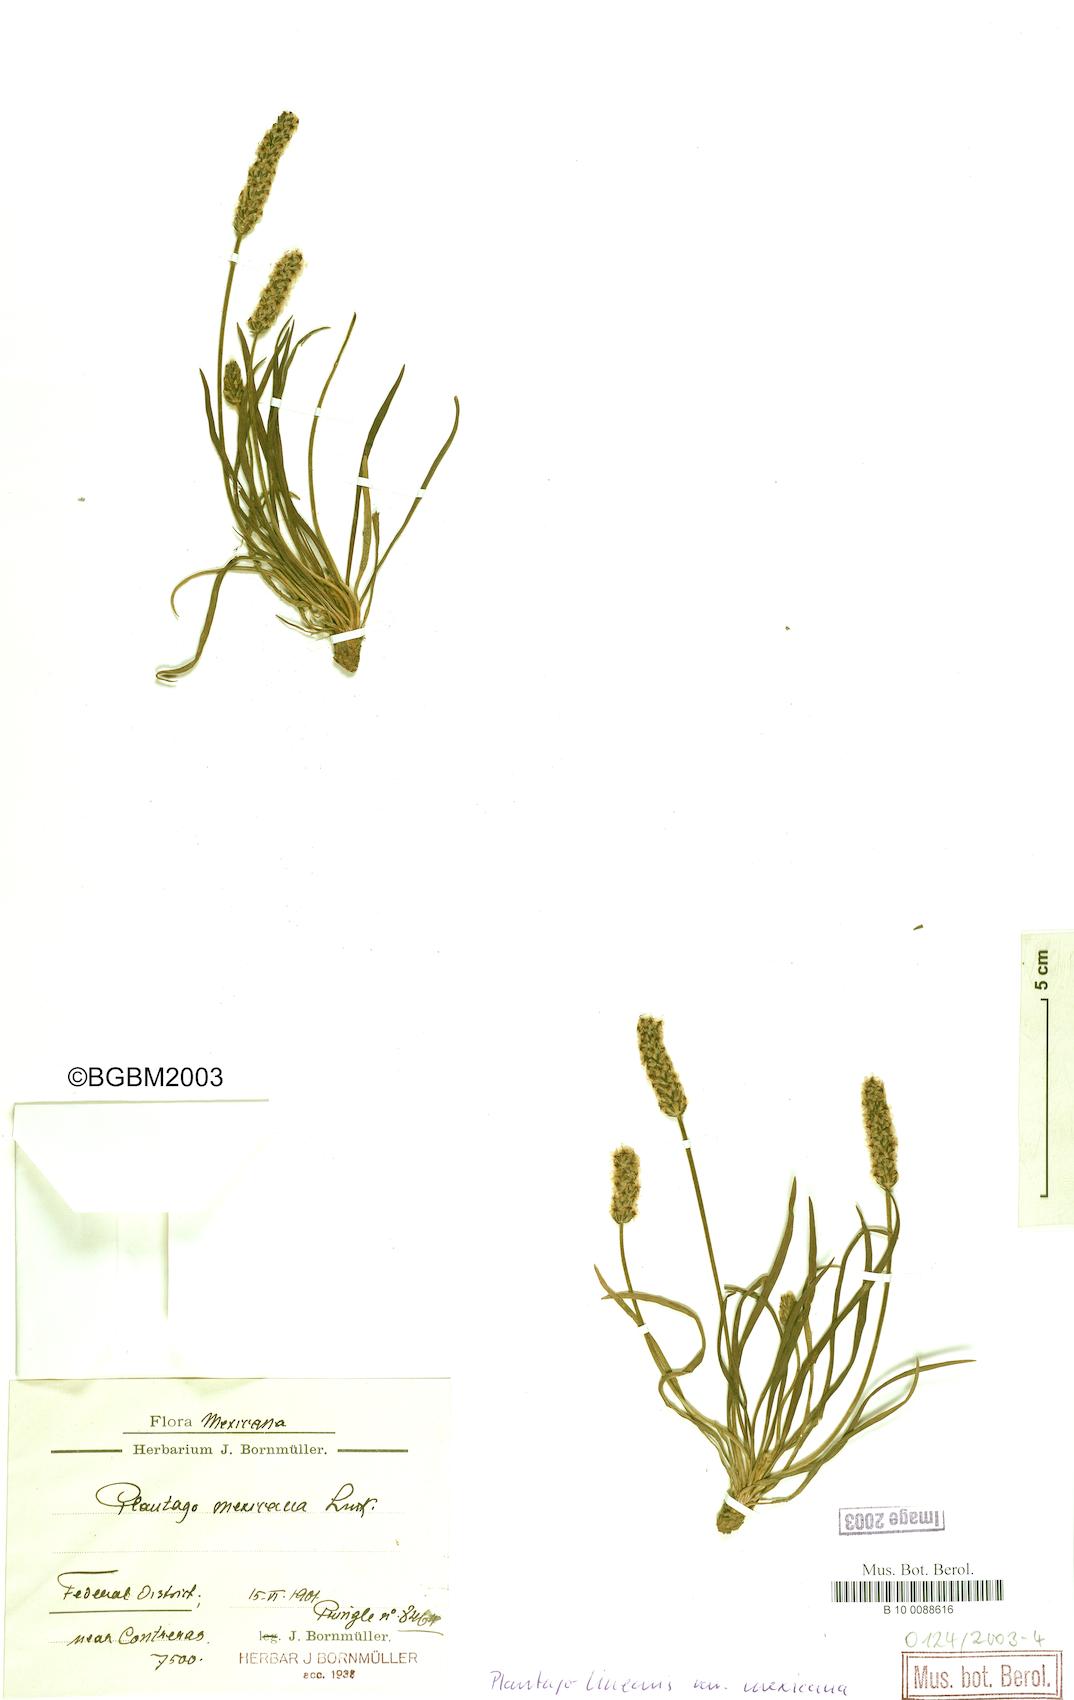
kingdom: Plantae
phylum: Tracheophyta
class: Magnoliopsida
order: Lamiales
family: Plantaginaceae
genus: Plantago
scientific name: Plantago nivea
